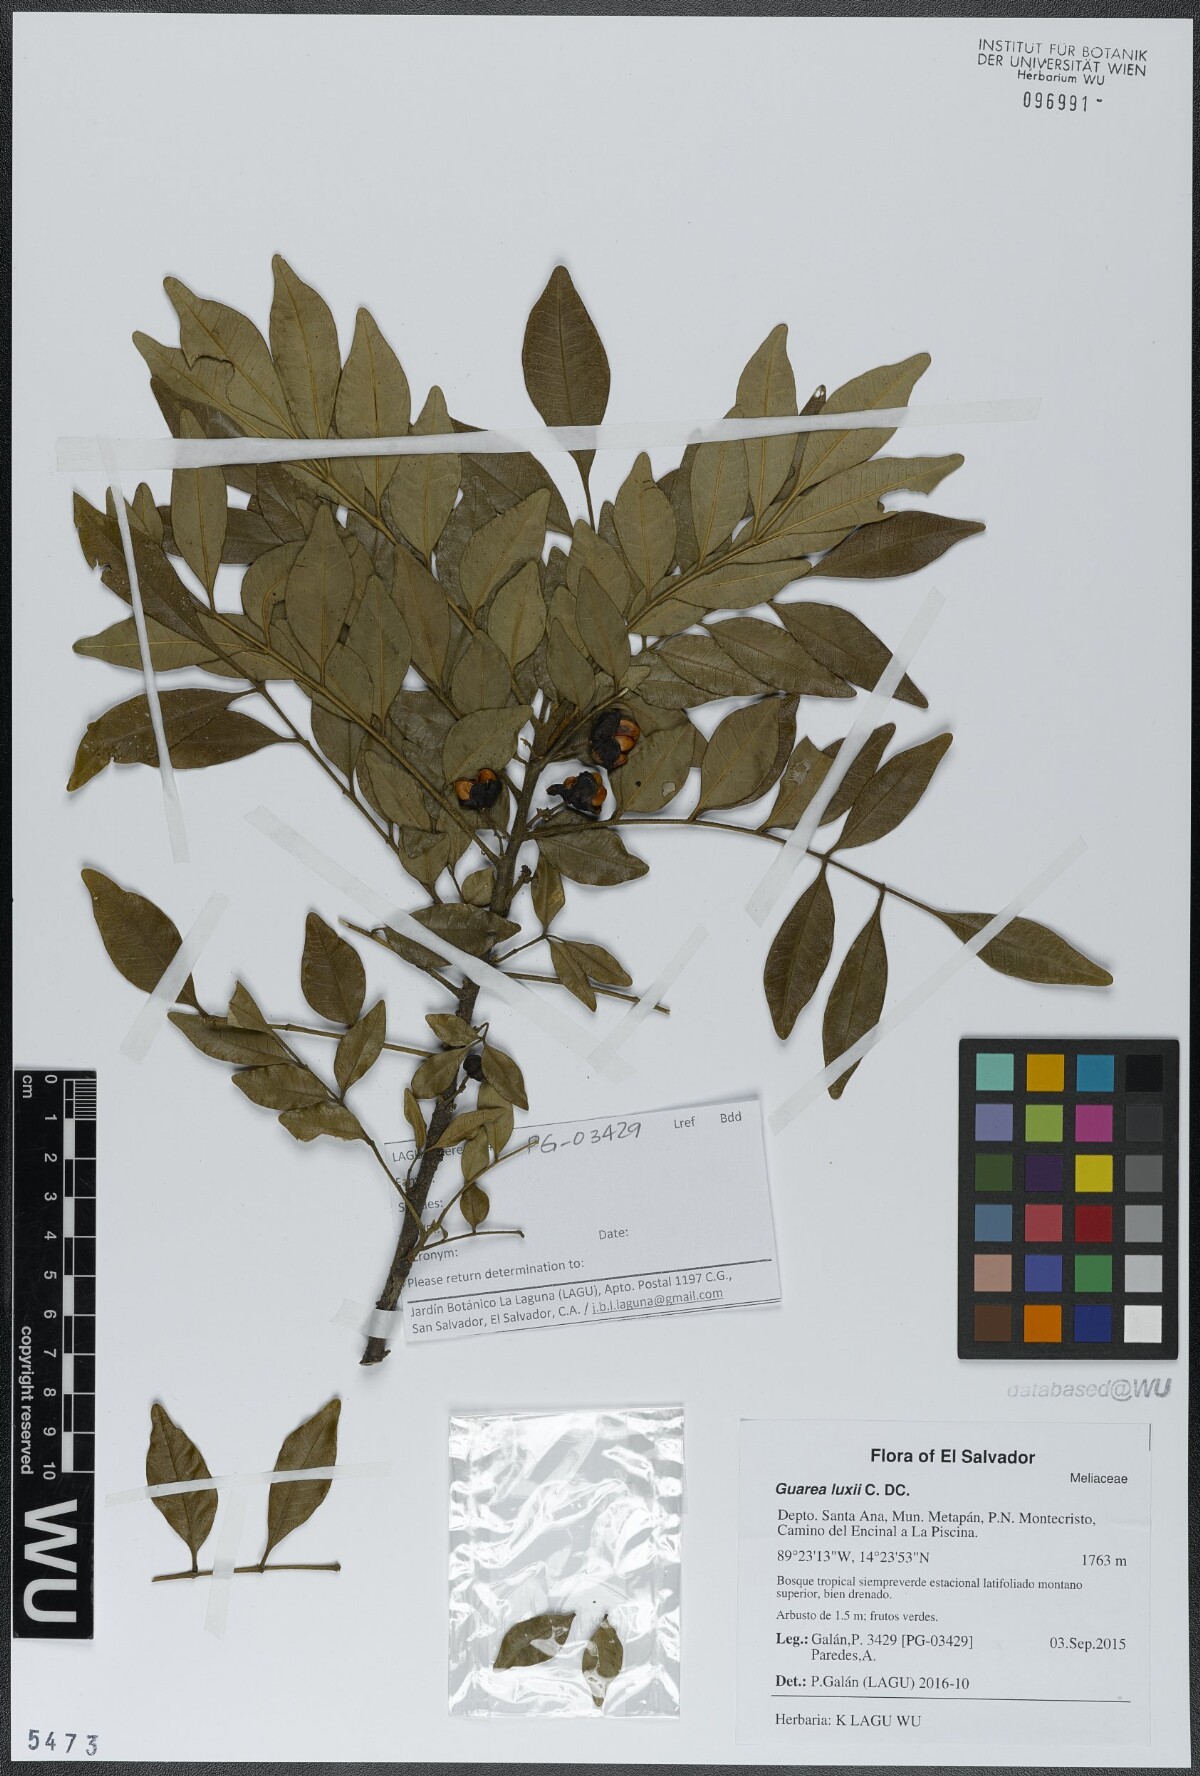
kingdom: Plantae
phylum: Tracheophyta
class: Magnoliopsida
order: Sapindales
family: Meliaceae
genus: Guarea
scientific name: Guarea luxii
